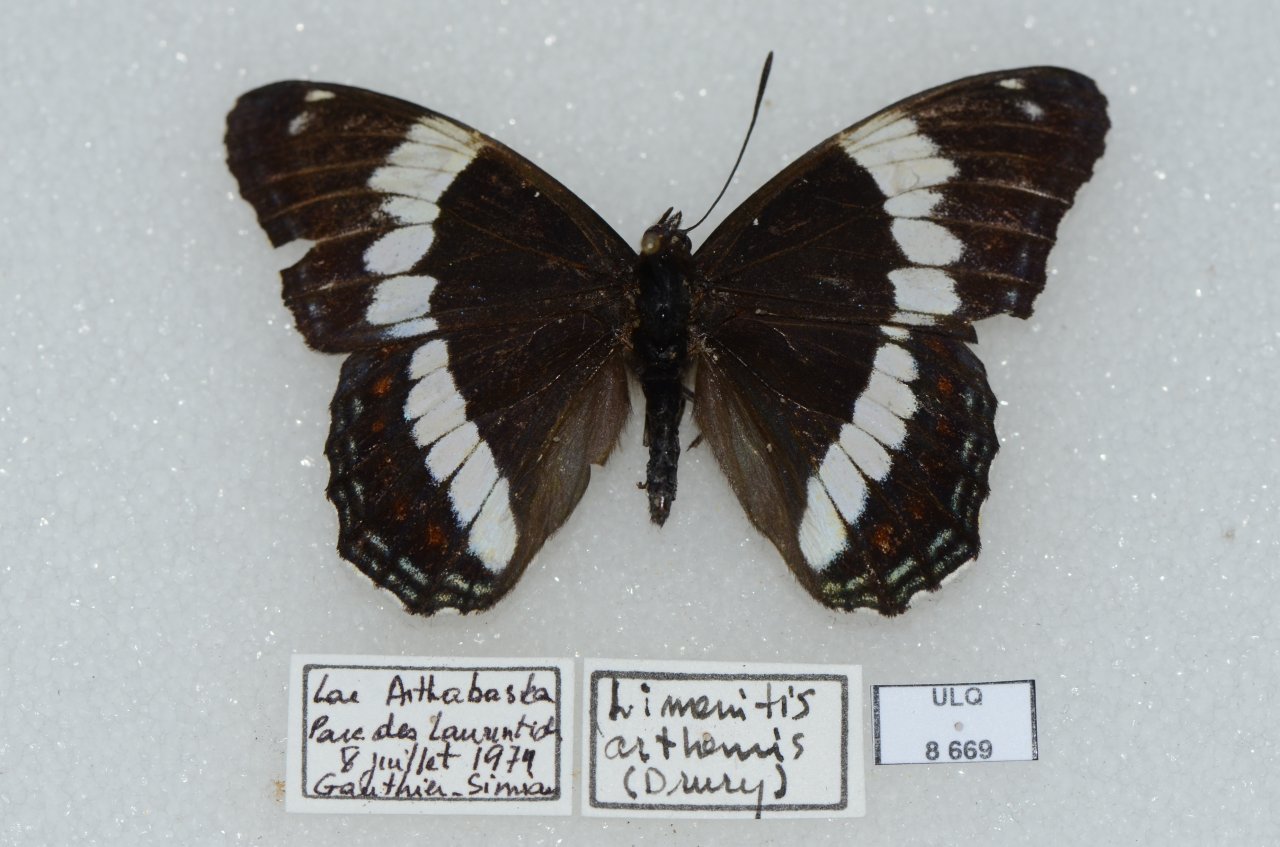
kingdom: Animalia
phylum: Arthropoda
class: Insecta
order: Lepidoptera
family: Nymphalidae
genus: Limenitis
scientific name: Limenitis arthemis
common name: Red-spotted Admiral
